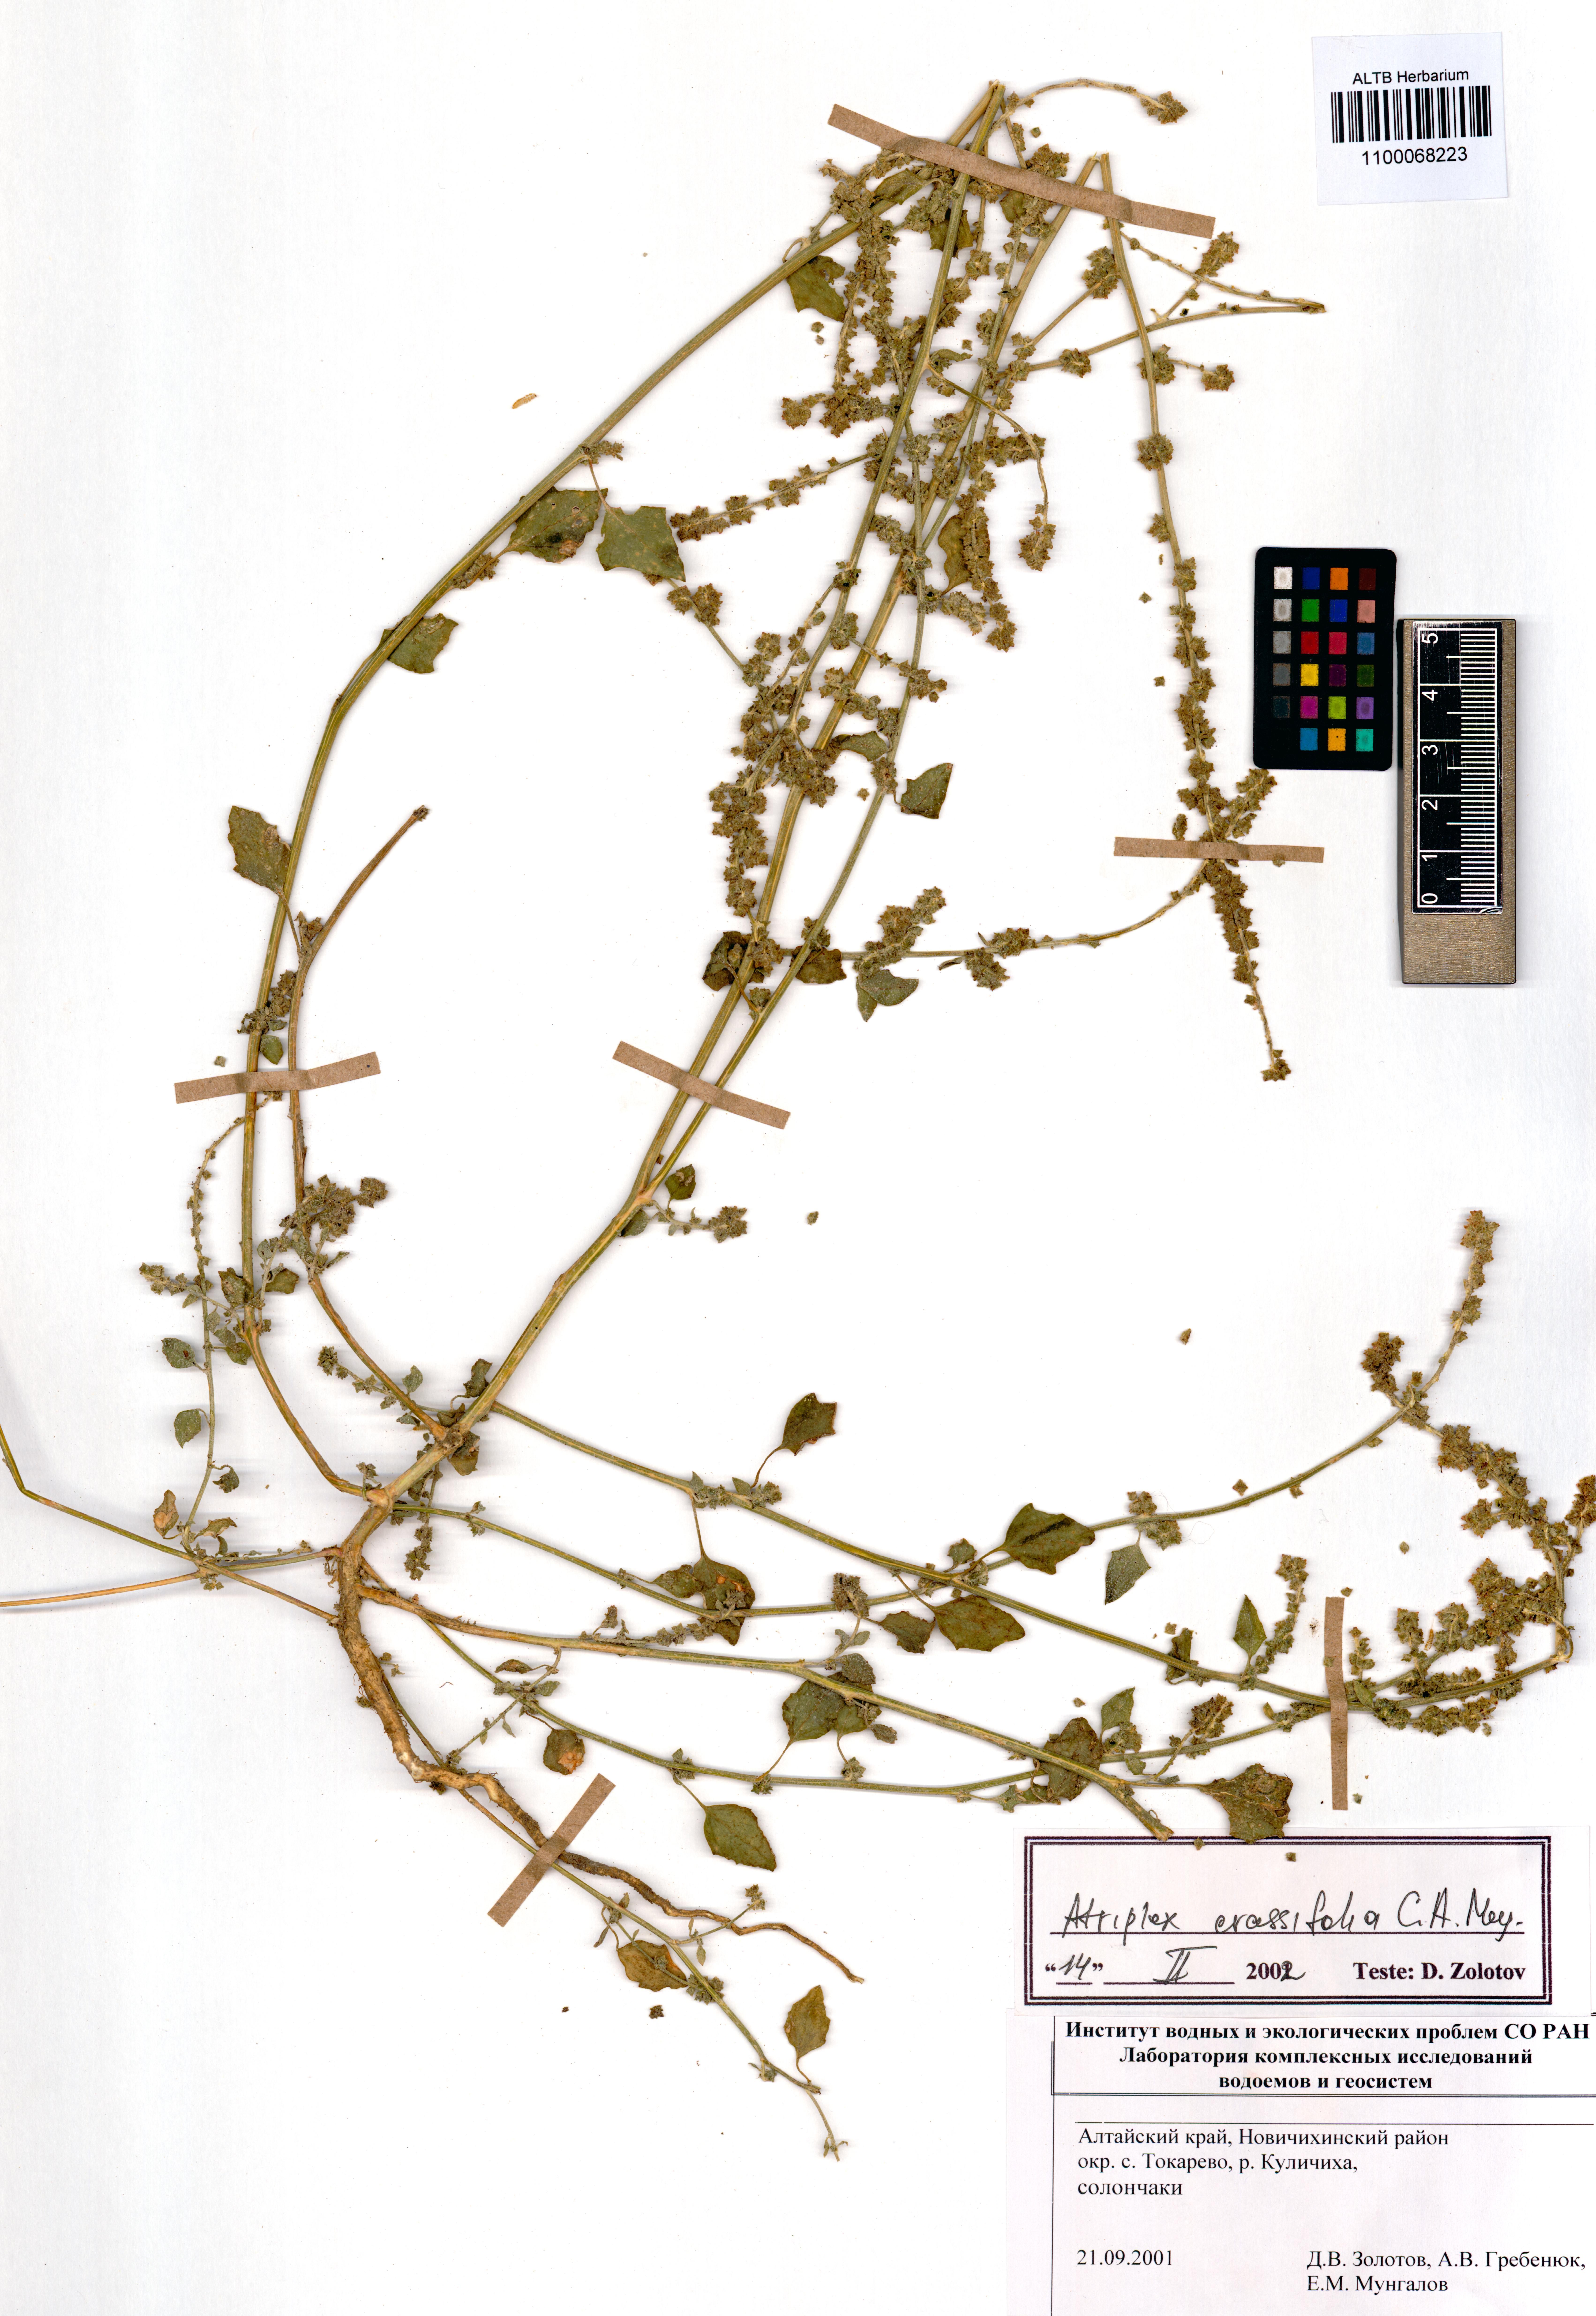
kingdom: Plantae
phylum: Tracheophyta
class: Magnoliopsida
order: Caryophyllales
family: Amaranthaceae
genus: Atriplex
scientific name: Atriplex crassifolia
